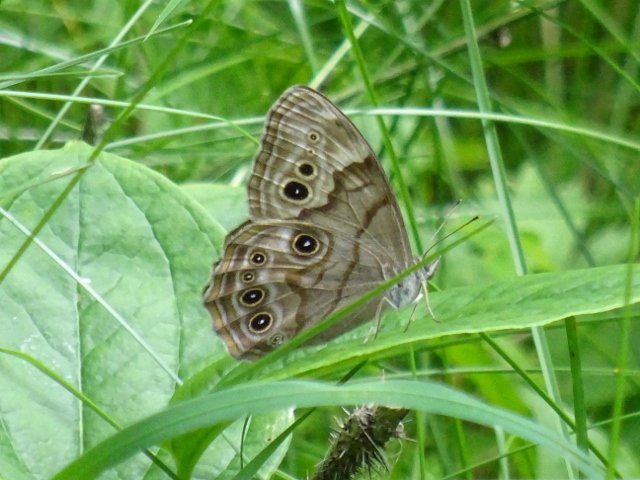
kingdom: Animalia
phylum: Arthropoda
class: Insecta
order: Lepidoptera
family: Nymphalidae
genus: Lethe
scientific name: Lethe anthedon
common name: Northern Pearly-Eye
